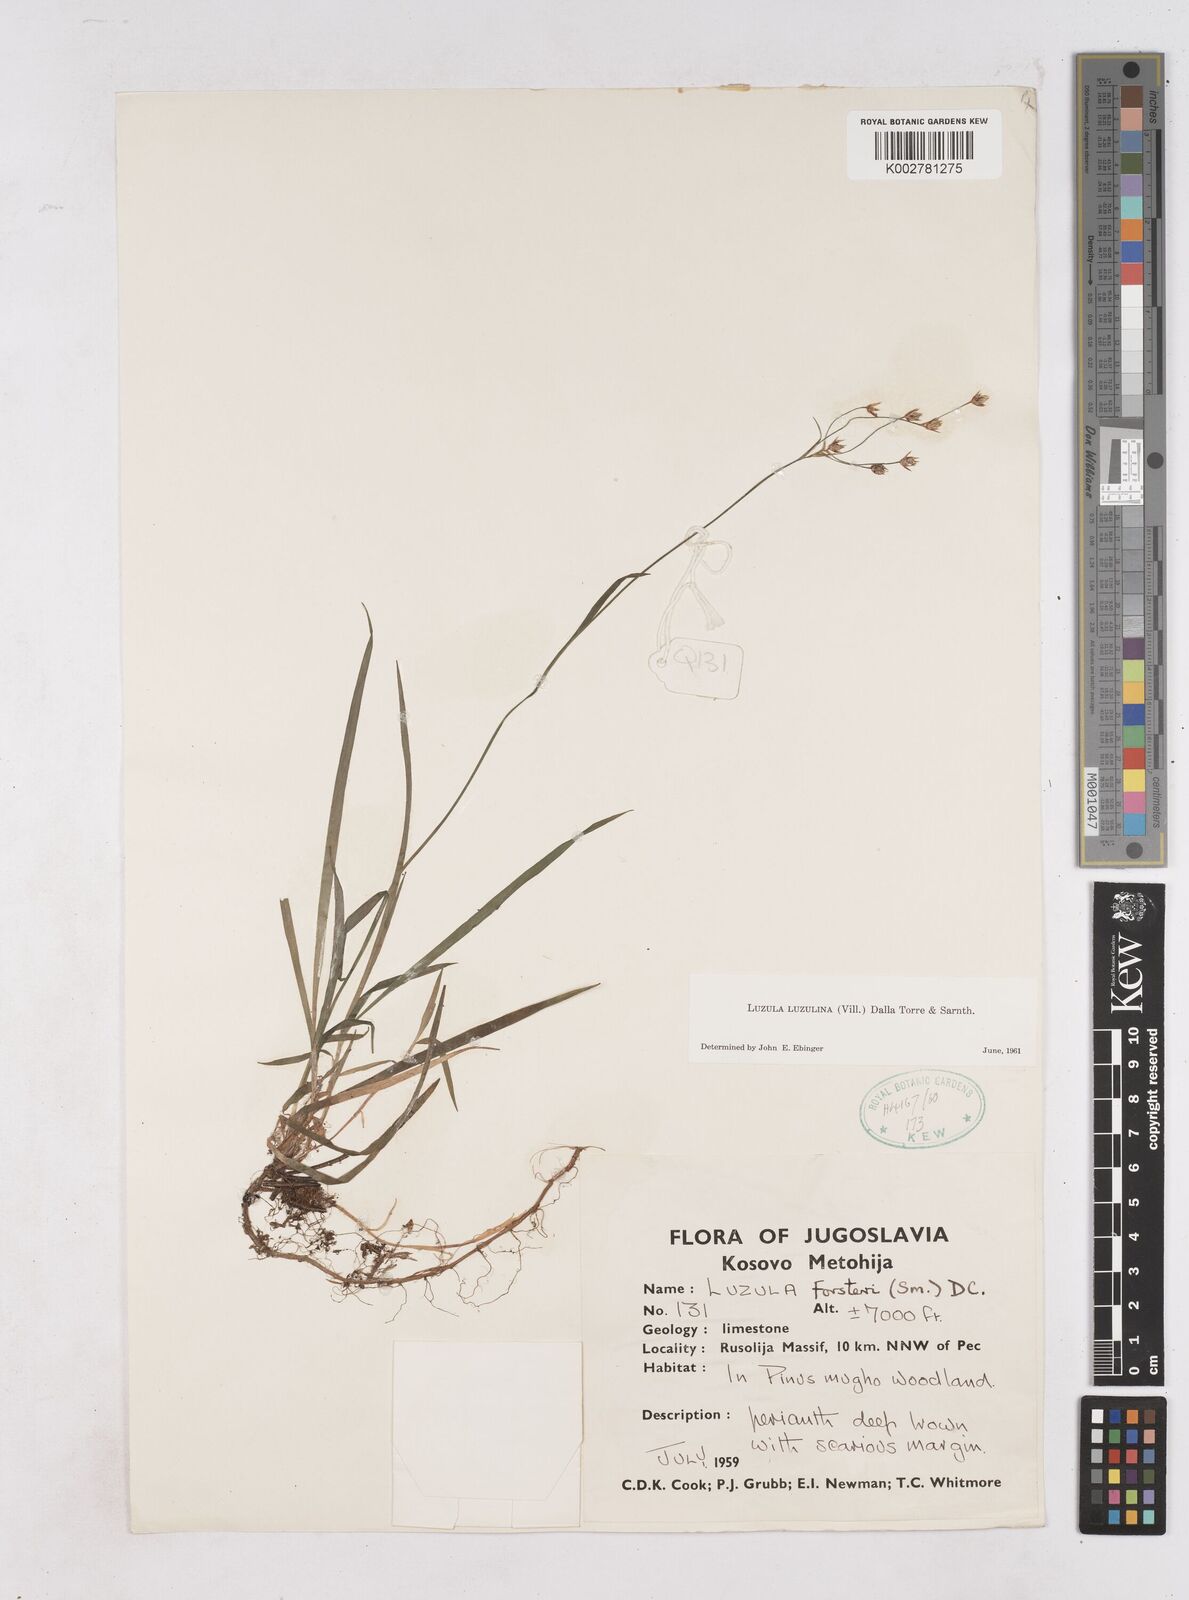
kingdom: Plantae
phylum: Tracheophyta
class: Liliopsida
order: Poales
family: Juncaceae
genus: Luzula
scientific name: Luzula luzulina
